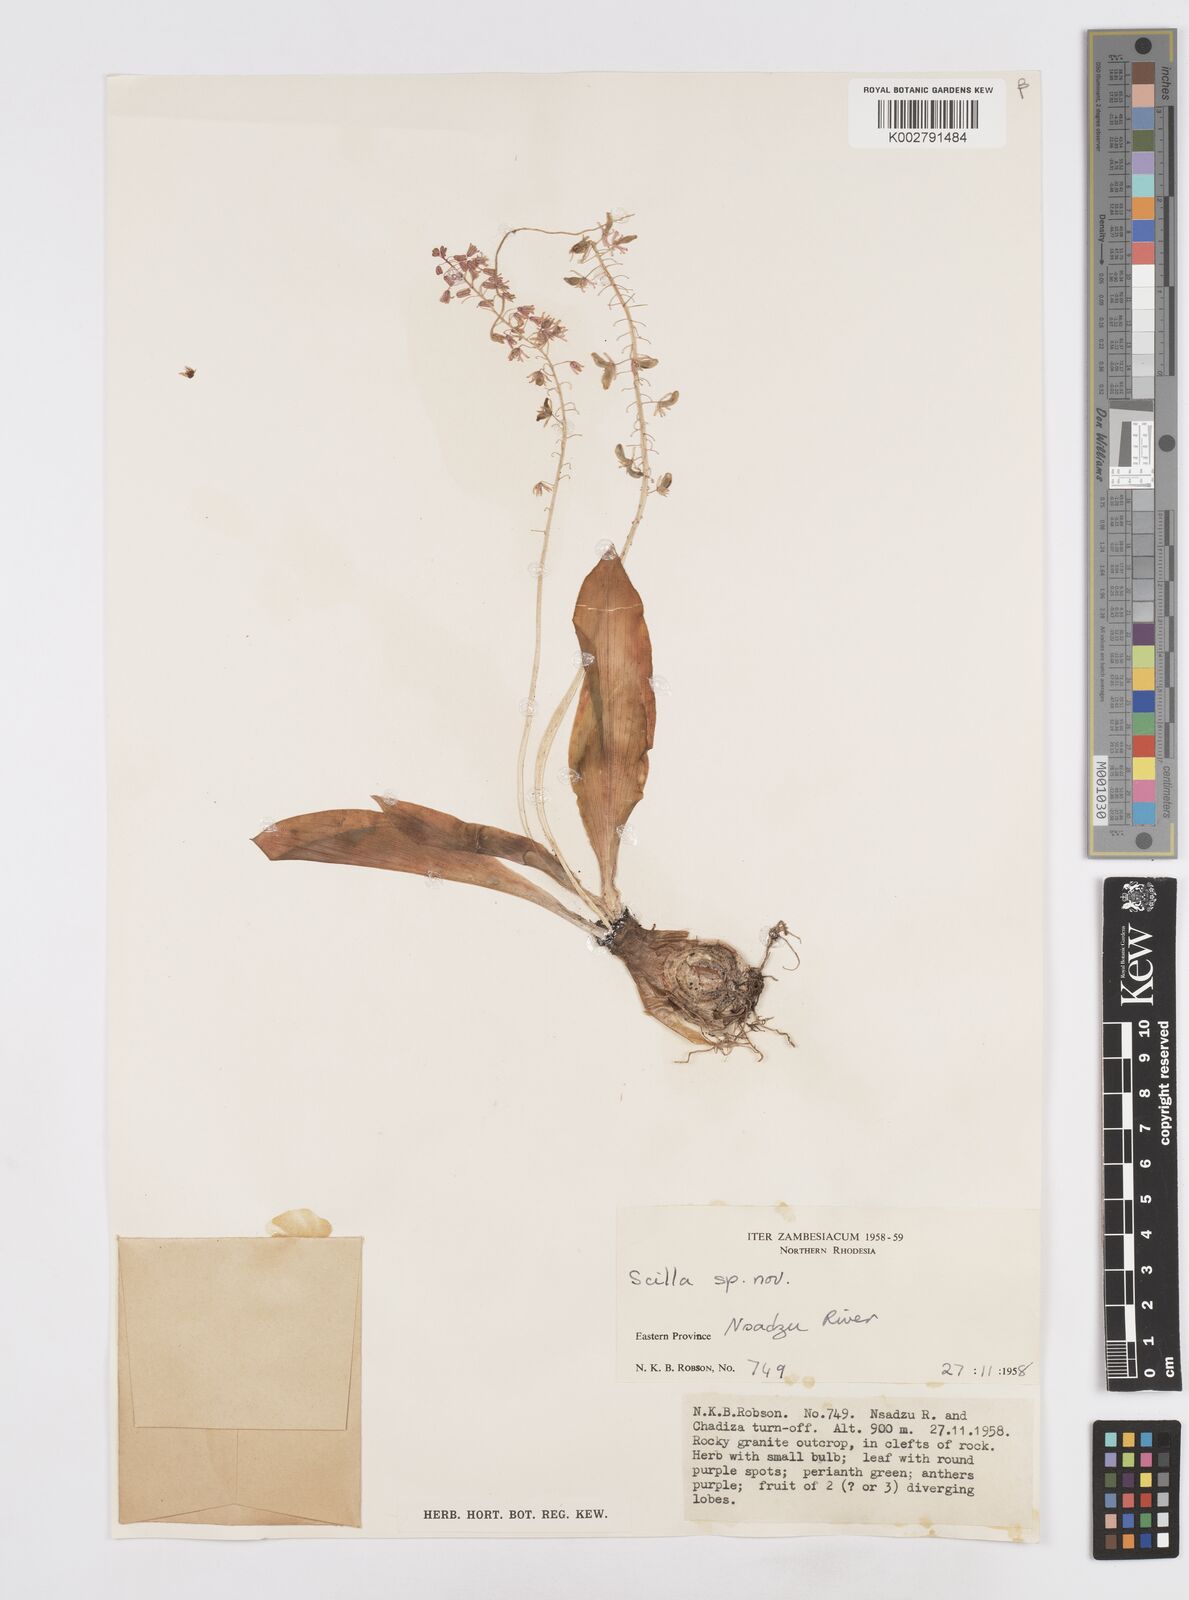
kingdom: Plantae
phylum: Tracheophyta
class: Liliopsida
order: Asparagales
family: Asparagaceae
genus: Scilla
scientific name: Scilla
